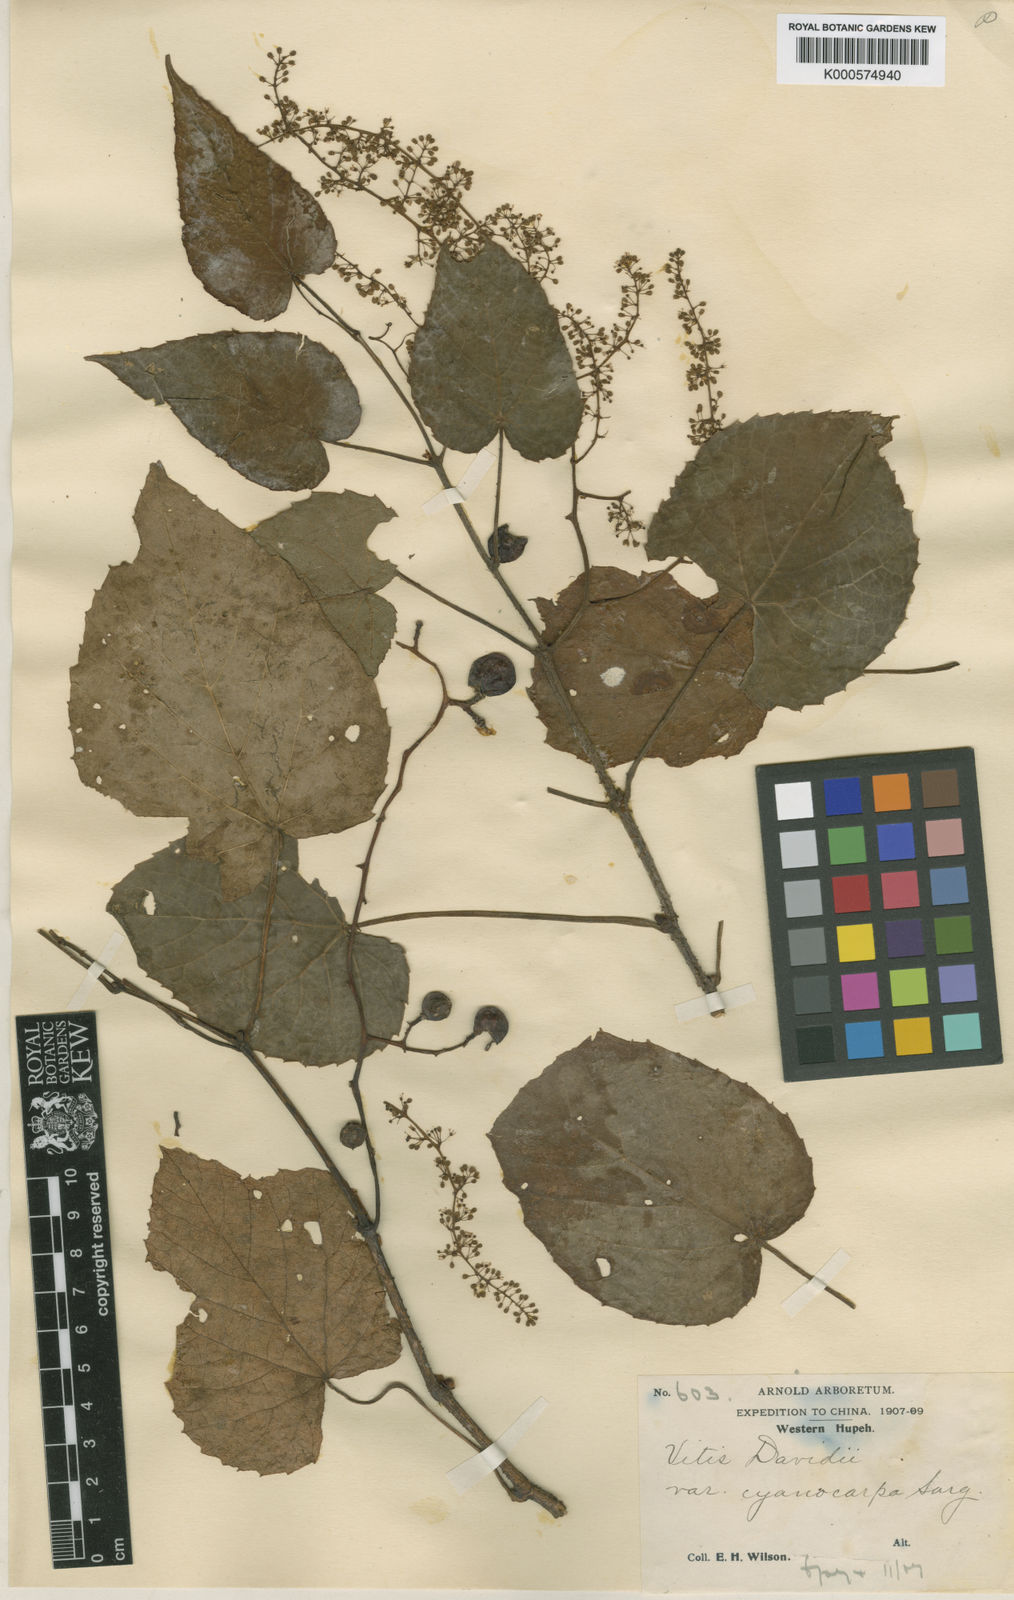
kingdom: Plantae
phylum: Tracheophyta
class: Magnoliopsida
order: Vitales
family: Vitaceae
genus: Vitis
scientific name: Vitis
